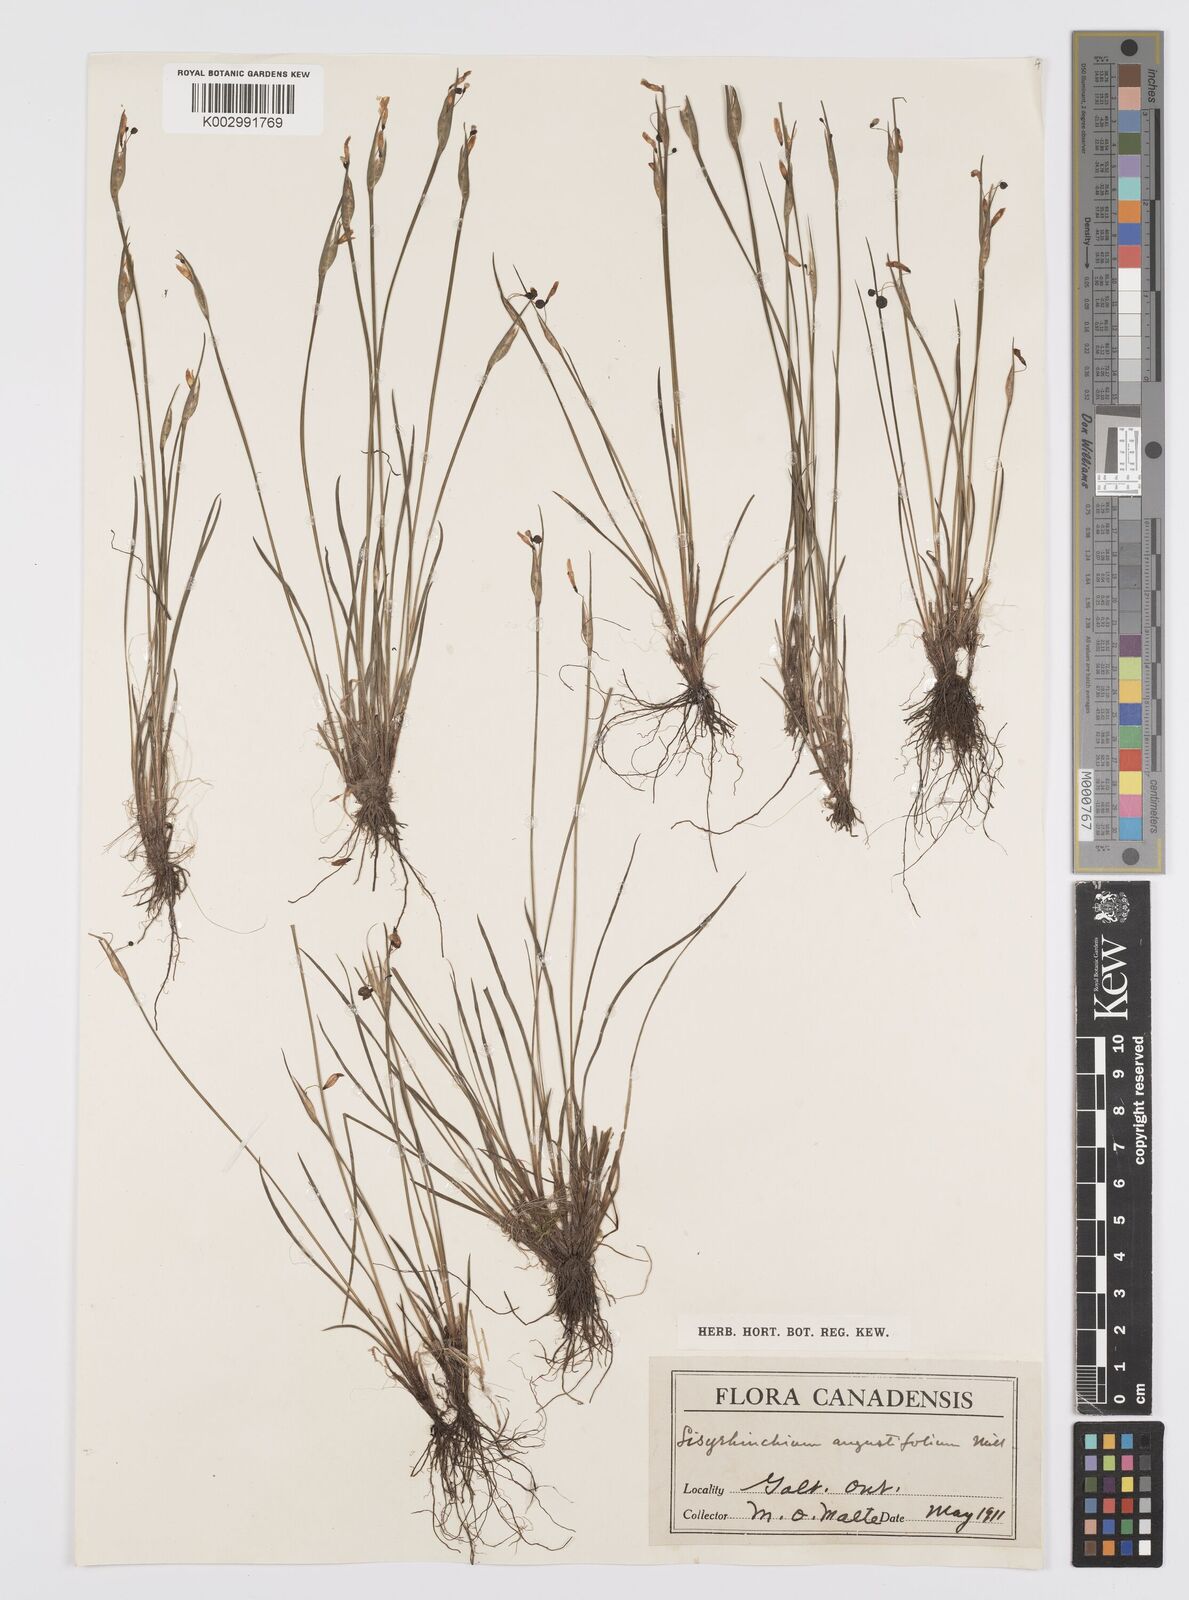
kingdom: Plantae
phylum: Tracheophyta
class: Liliopsida
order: Asparagales
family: Iridaceae
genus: Sisyrinchium
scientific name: Sisyrinchium bermudiana
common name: Blue-eyed-grass
